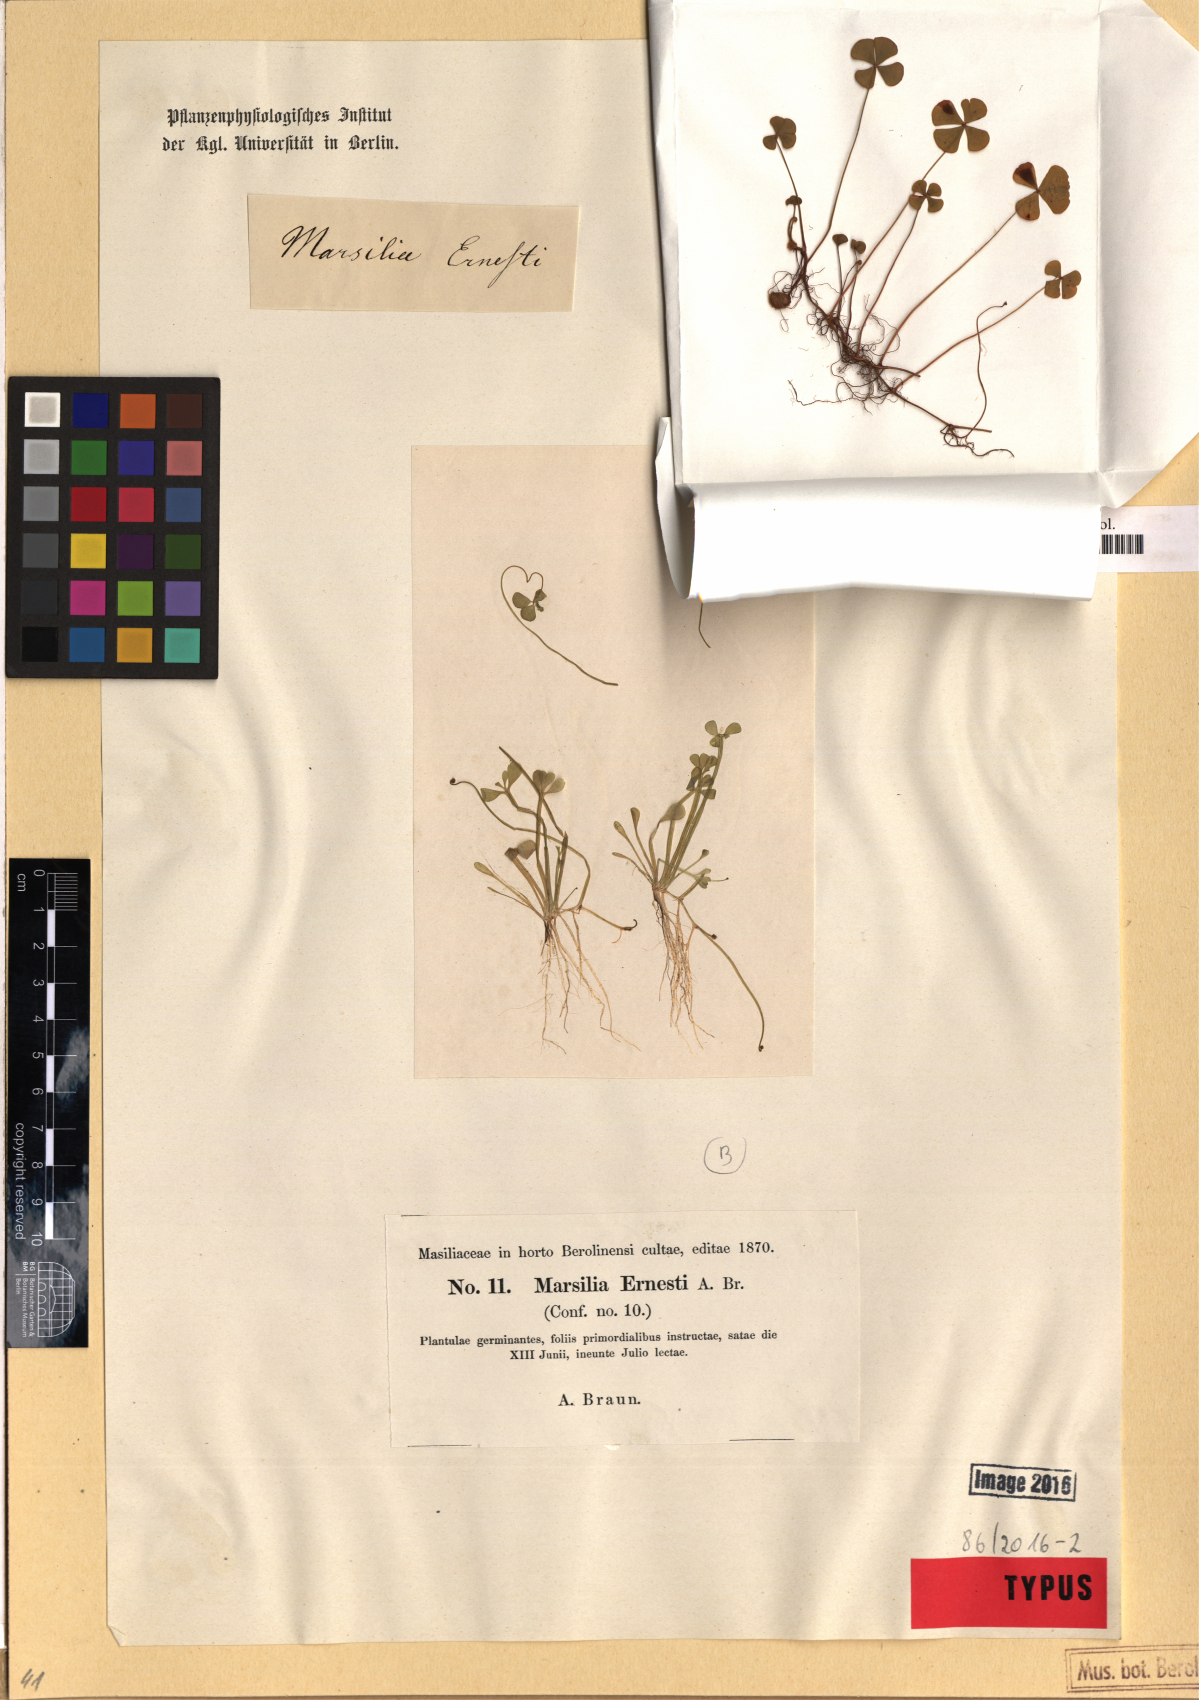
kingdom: Plantae
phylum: Tracheophyta
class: Polypodiopsida
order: Salviniales
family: Marsileaceae
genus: Marsilea
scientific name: Marsilea ancylopoda
